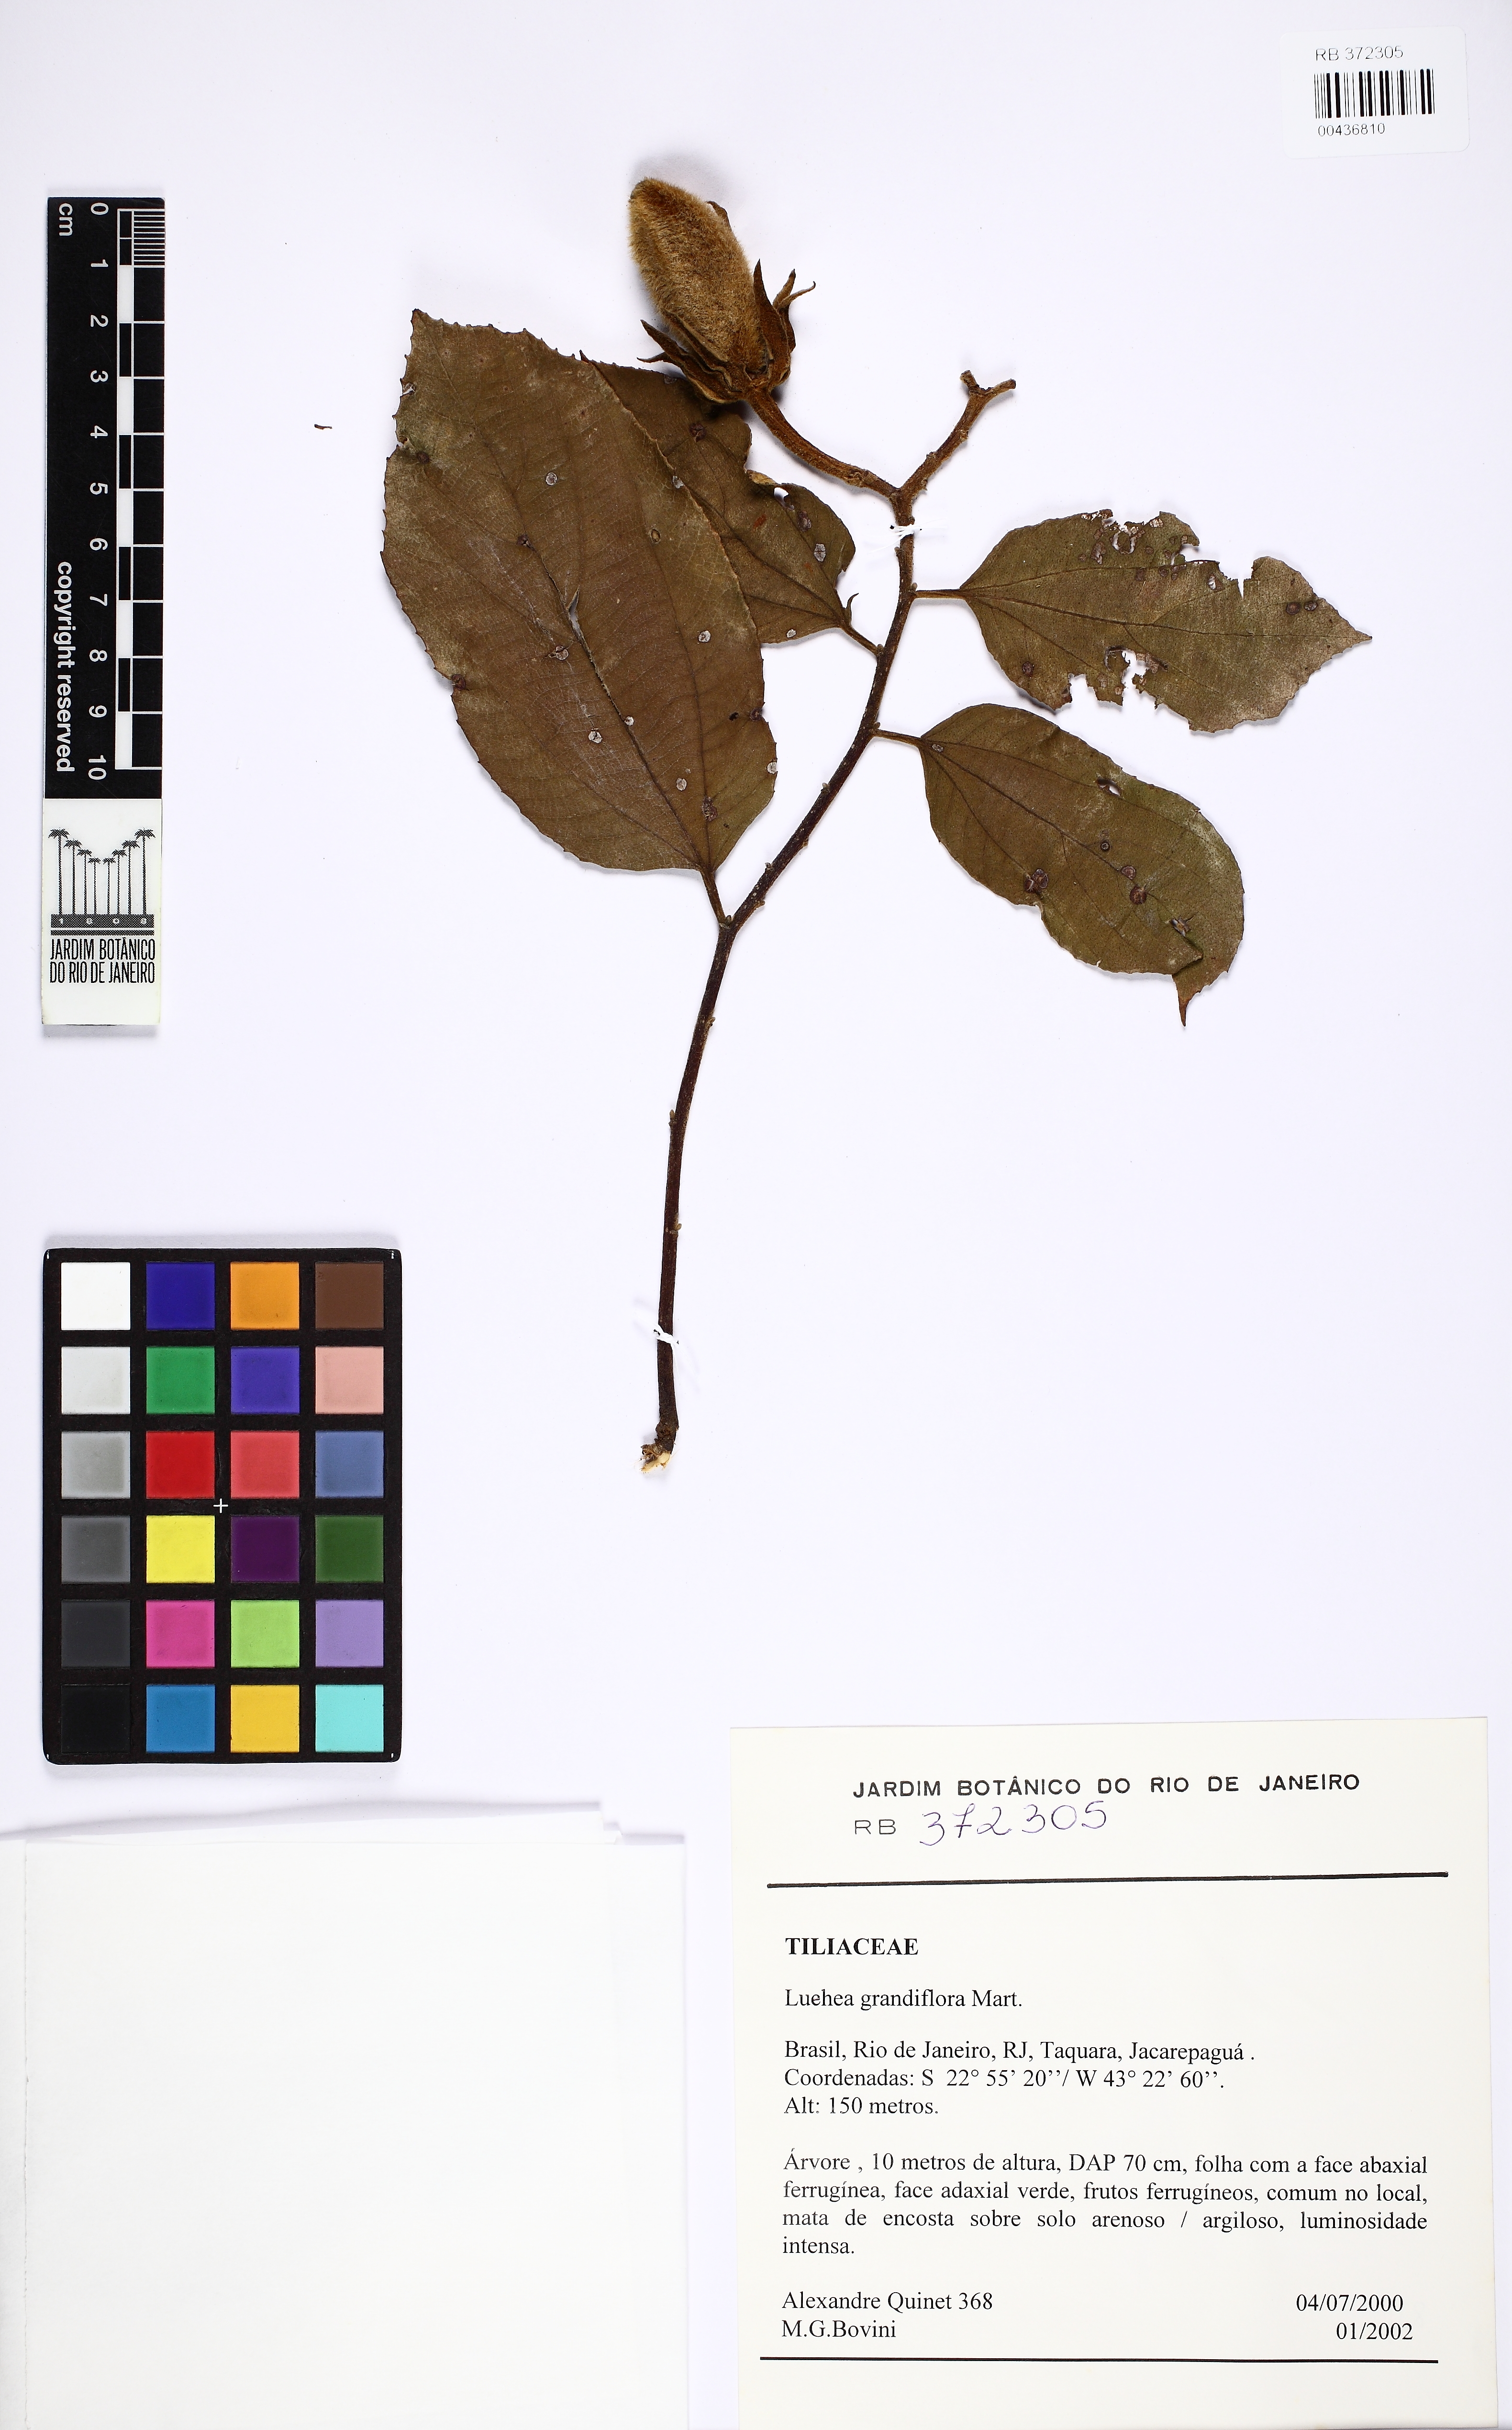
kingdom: Plantae
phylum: Tracheophyta
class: Magnoliopsida
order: Malvales
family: Malvaceae
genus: Luehea
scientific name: Luehea grandiflora
